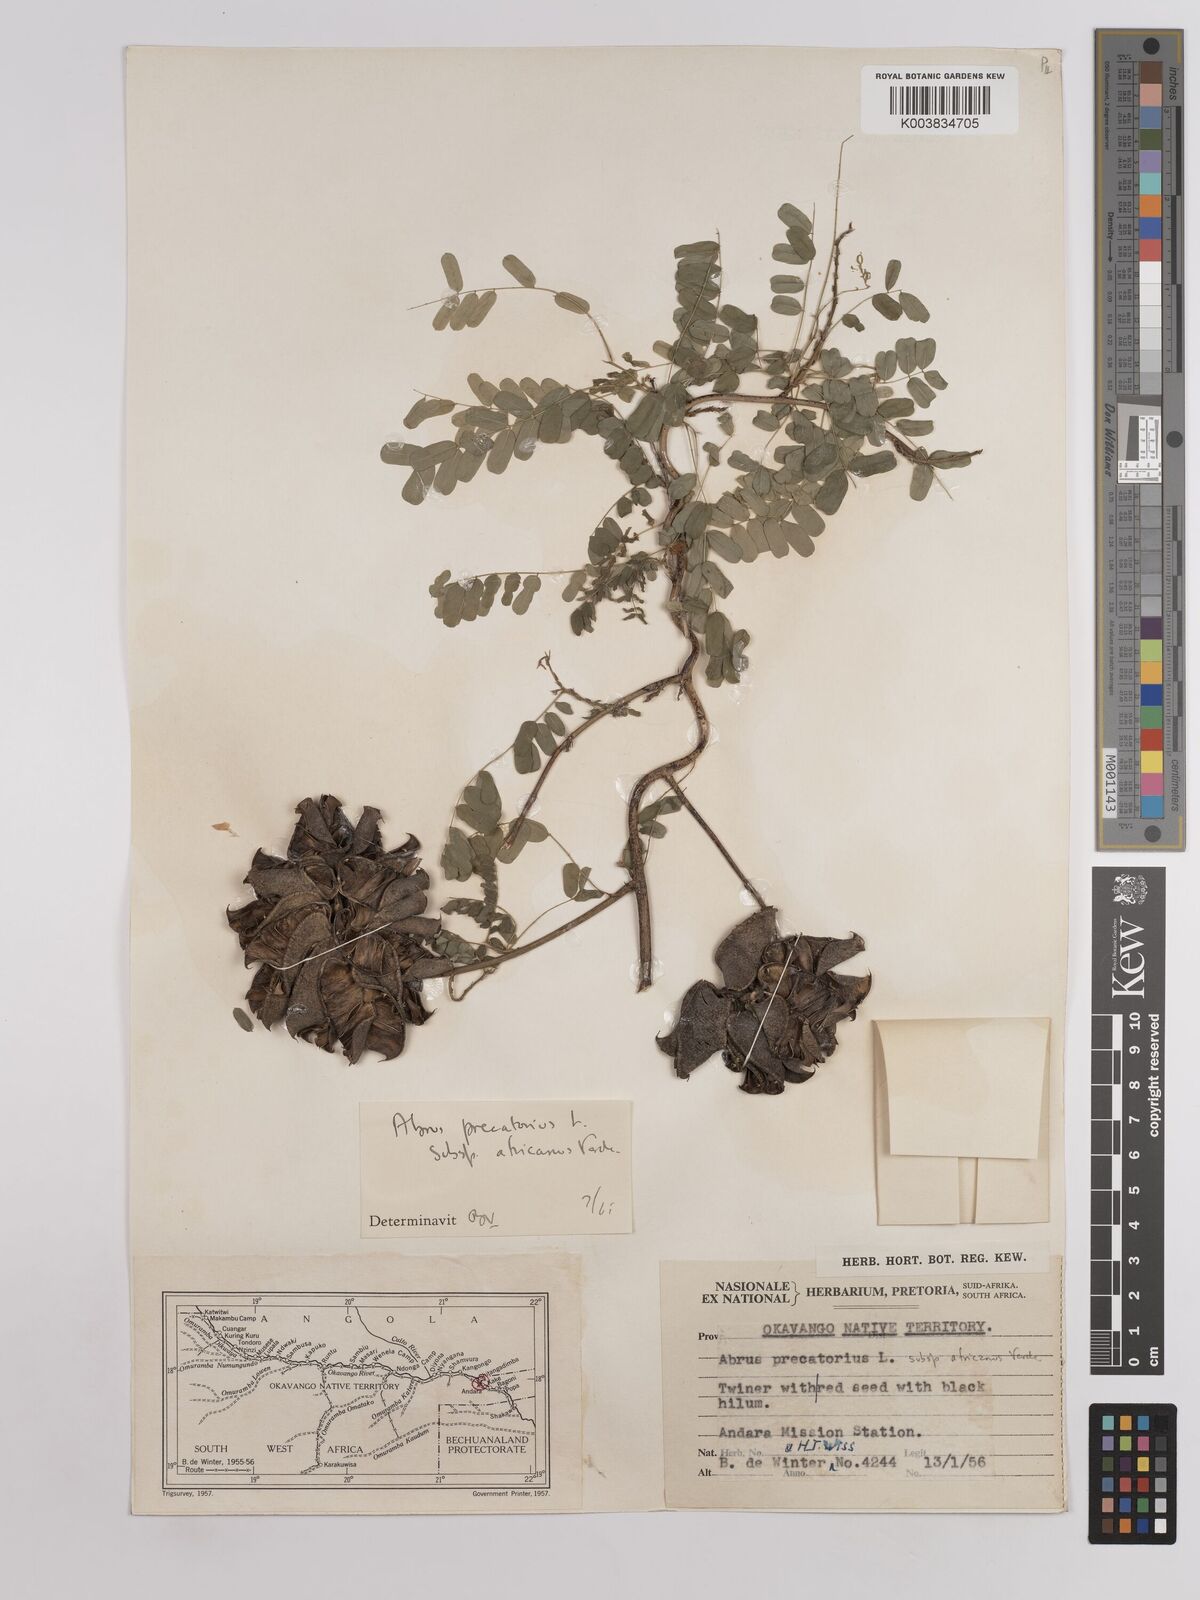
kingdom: Plantae
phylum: Tracheophyta
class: Magnoliopsida
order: Fabales
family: Fabaceae
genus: Abrus
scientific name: Abrus precatorius
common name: Rosarypea
